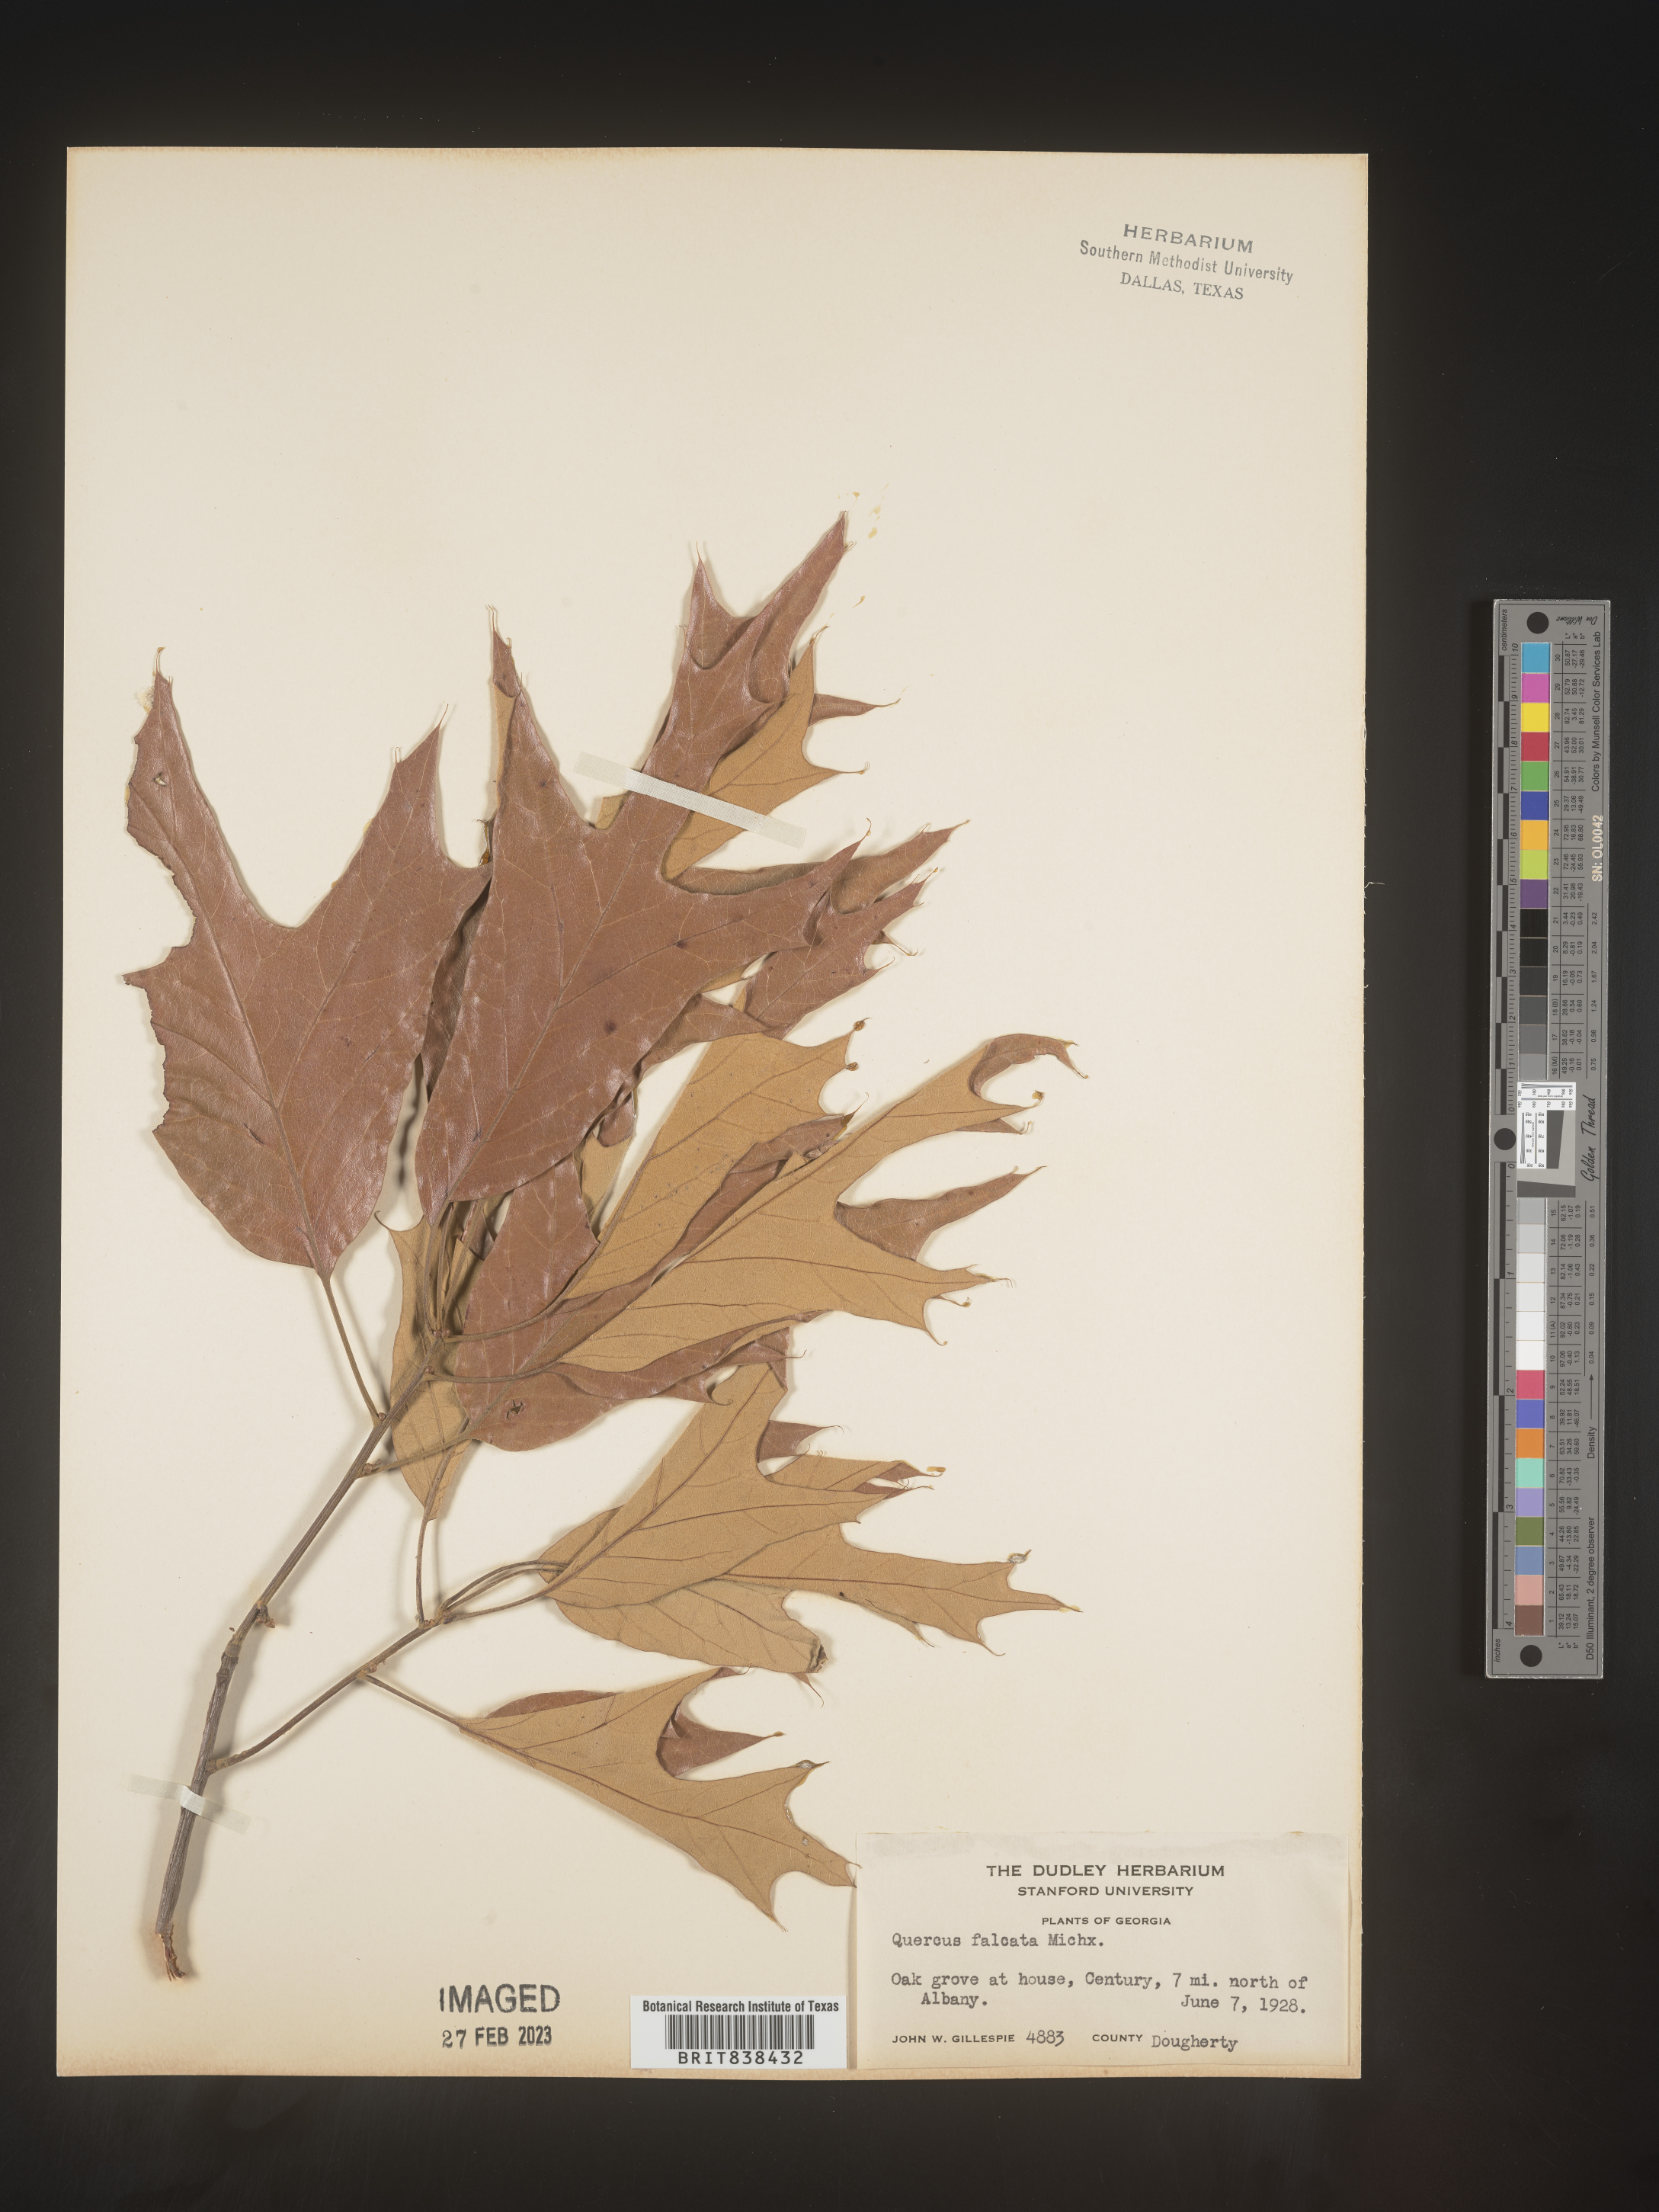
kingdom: Plantae
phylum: Tracheophyta
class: Magnoliopsida
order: Fagales
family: Fagaceae
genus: Quercus
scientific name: Quercus falcata
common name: Southern red oak
